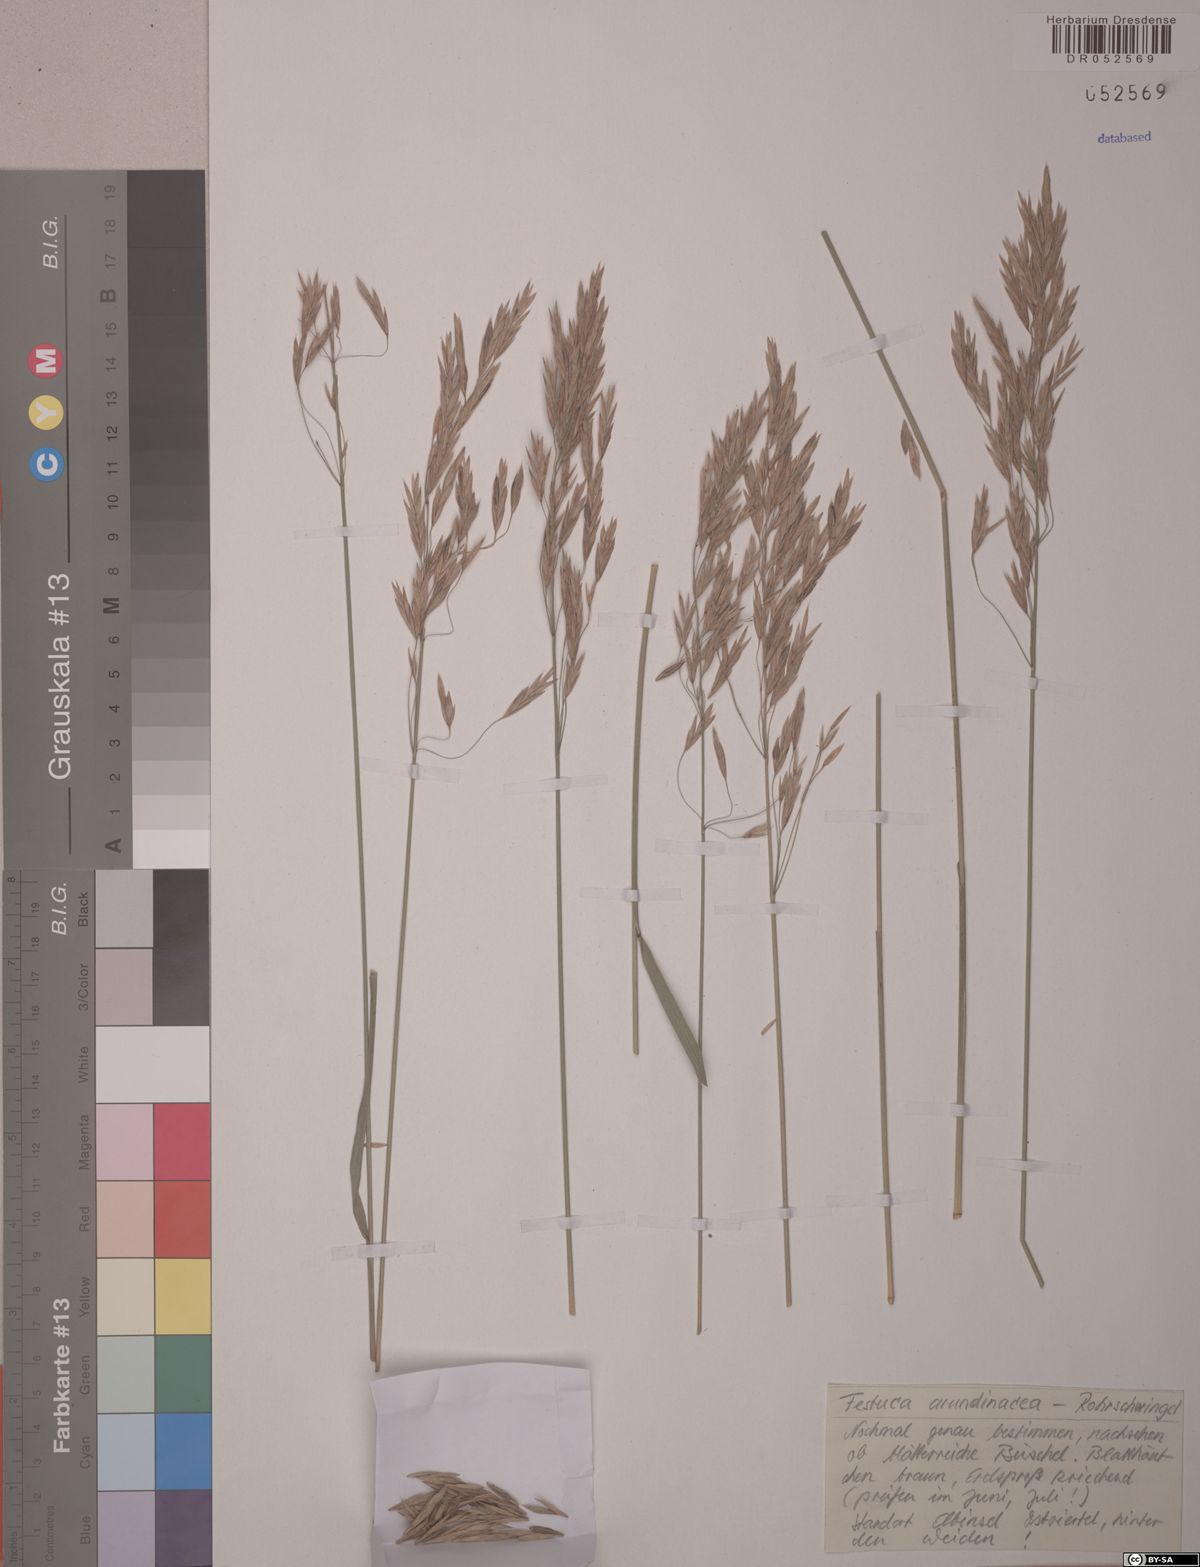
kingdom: Plantae
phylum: Tracheophyta
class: Liliopsida
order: Poales
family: Poaceae
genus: Lolium
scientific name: Lolium arundinaceum
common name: Reed fescue
